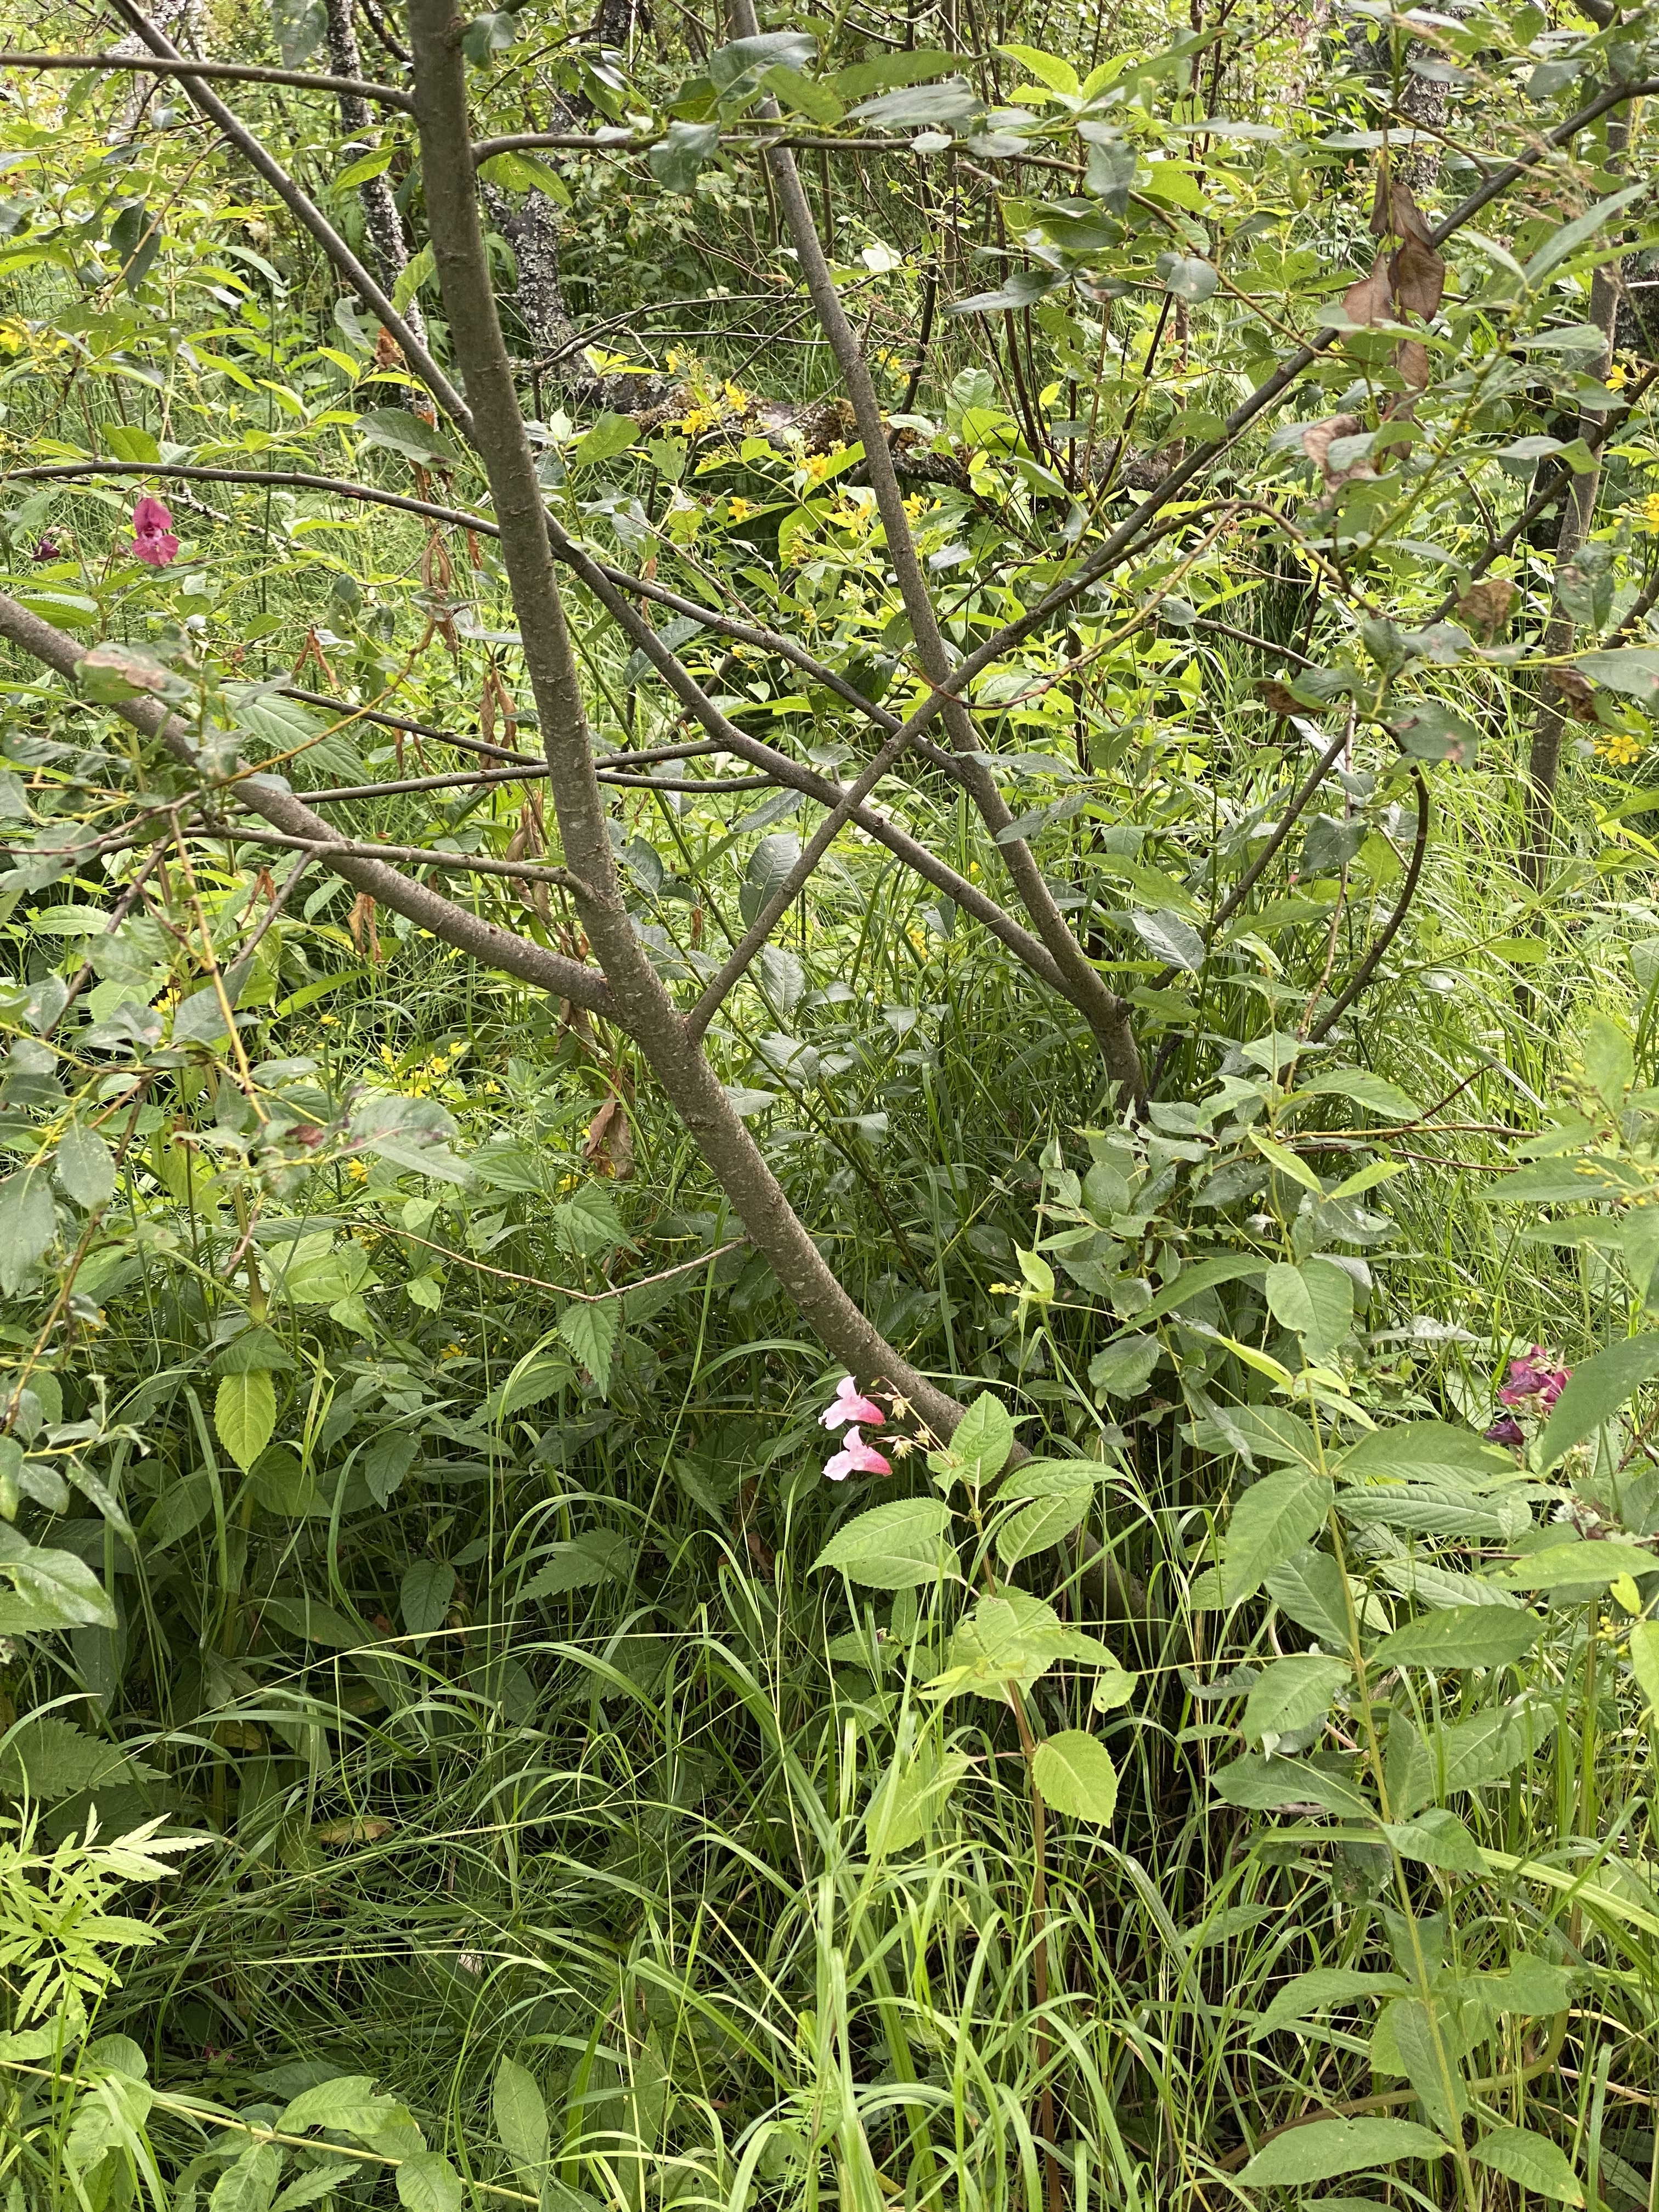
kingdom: Plantae
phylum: Tracheophyta
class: Magnoliopsida
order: Ericales
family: Balsaminaceae
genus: Impatiens
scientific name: Impatiens glandulifera
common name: Himalayan balsam
